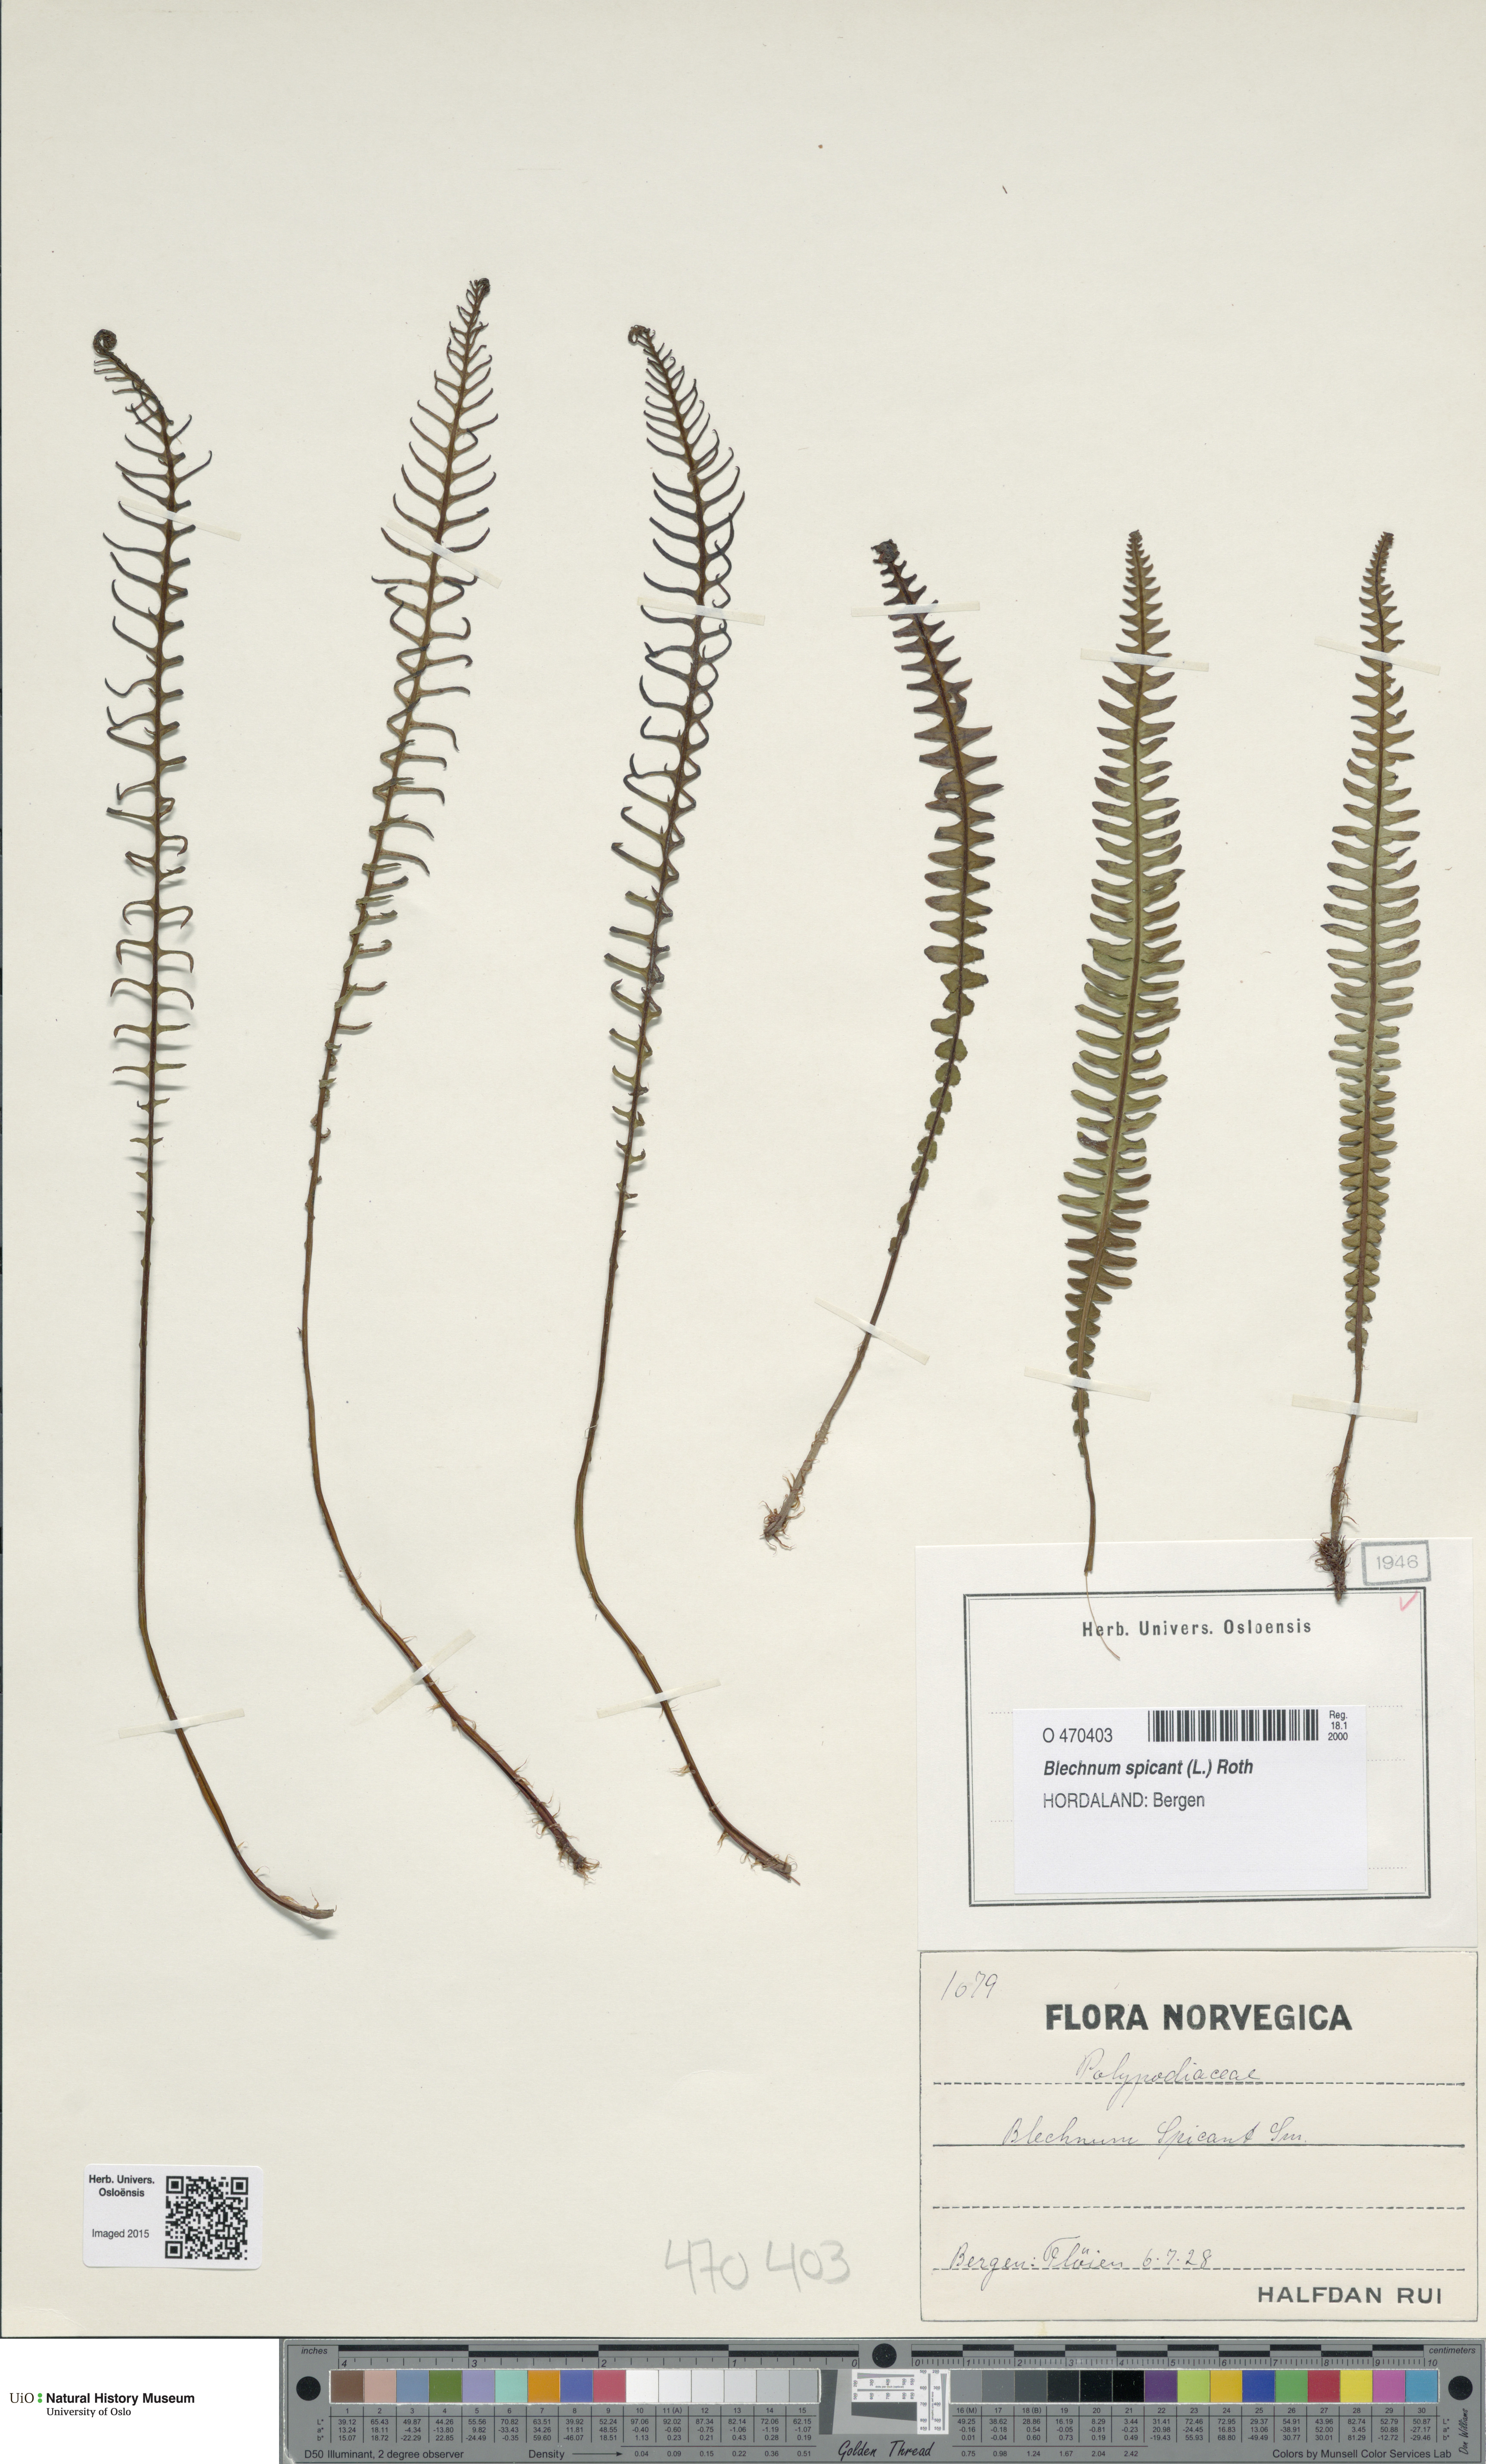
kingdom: Plantae
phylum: Tracheophyta
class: Polypodiopsida
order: Polypodiales
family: Blechnaceae
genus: Struthiopteris
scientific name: Struthiopteris spicant
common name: Deer fern
